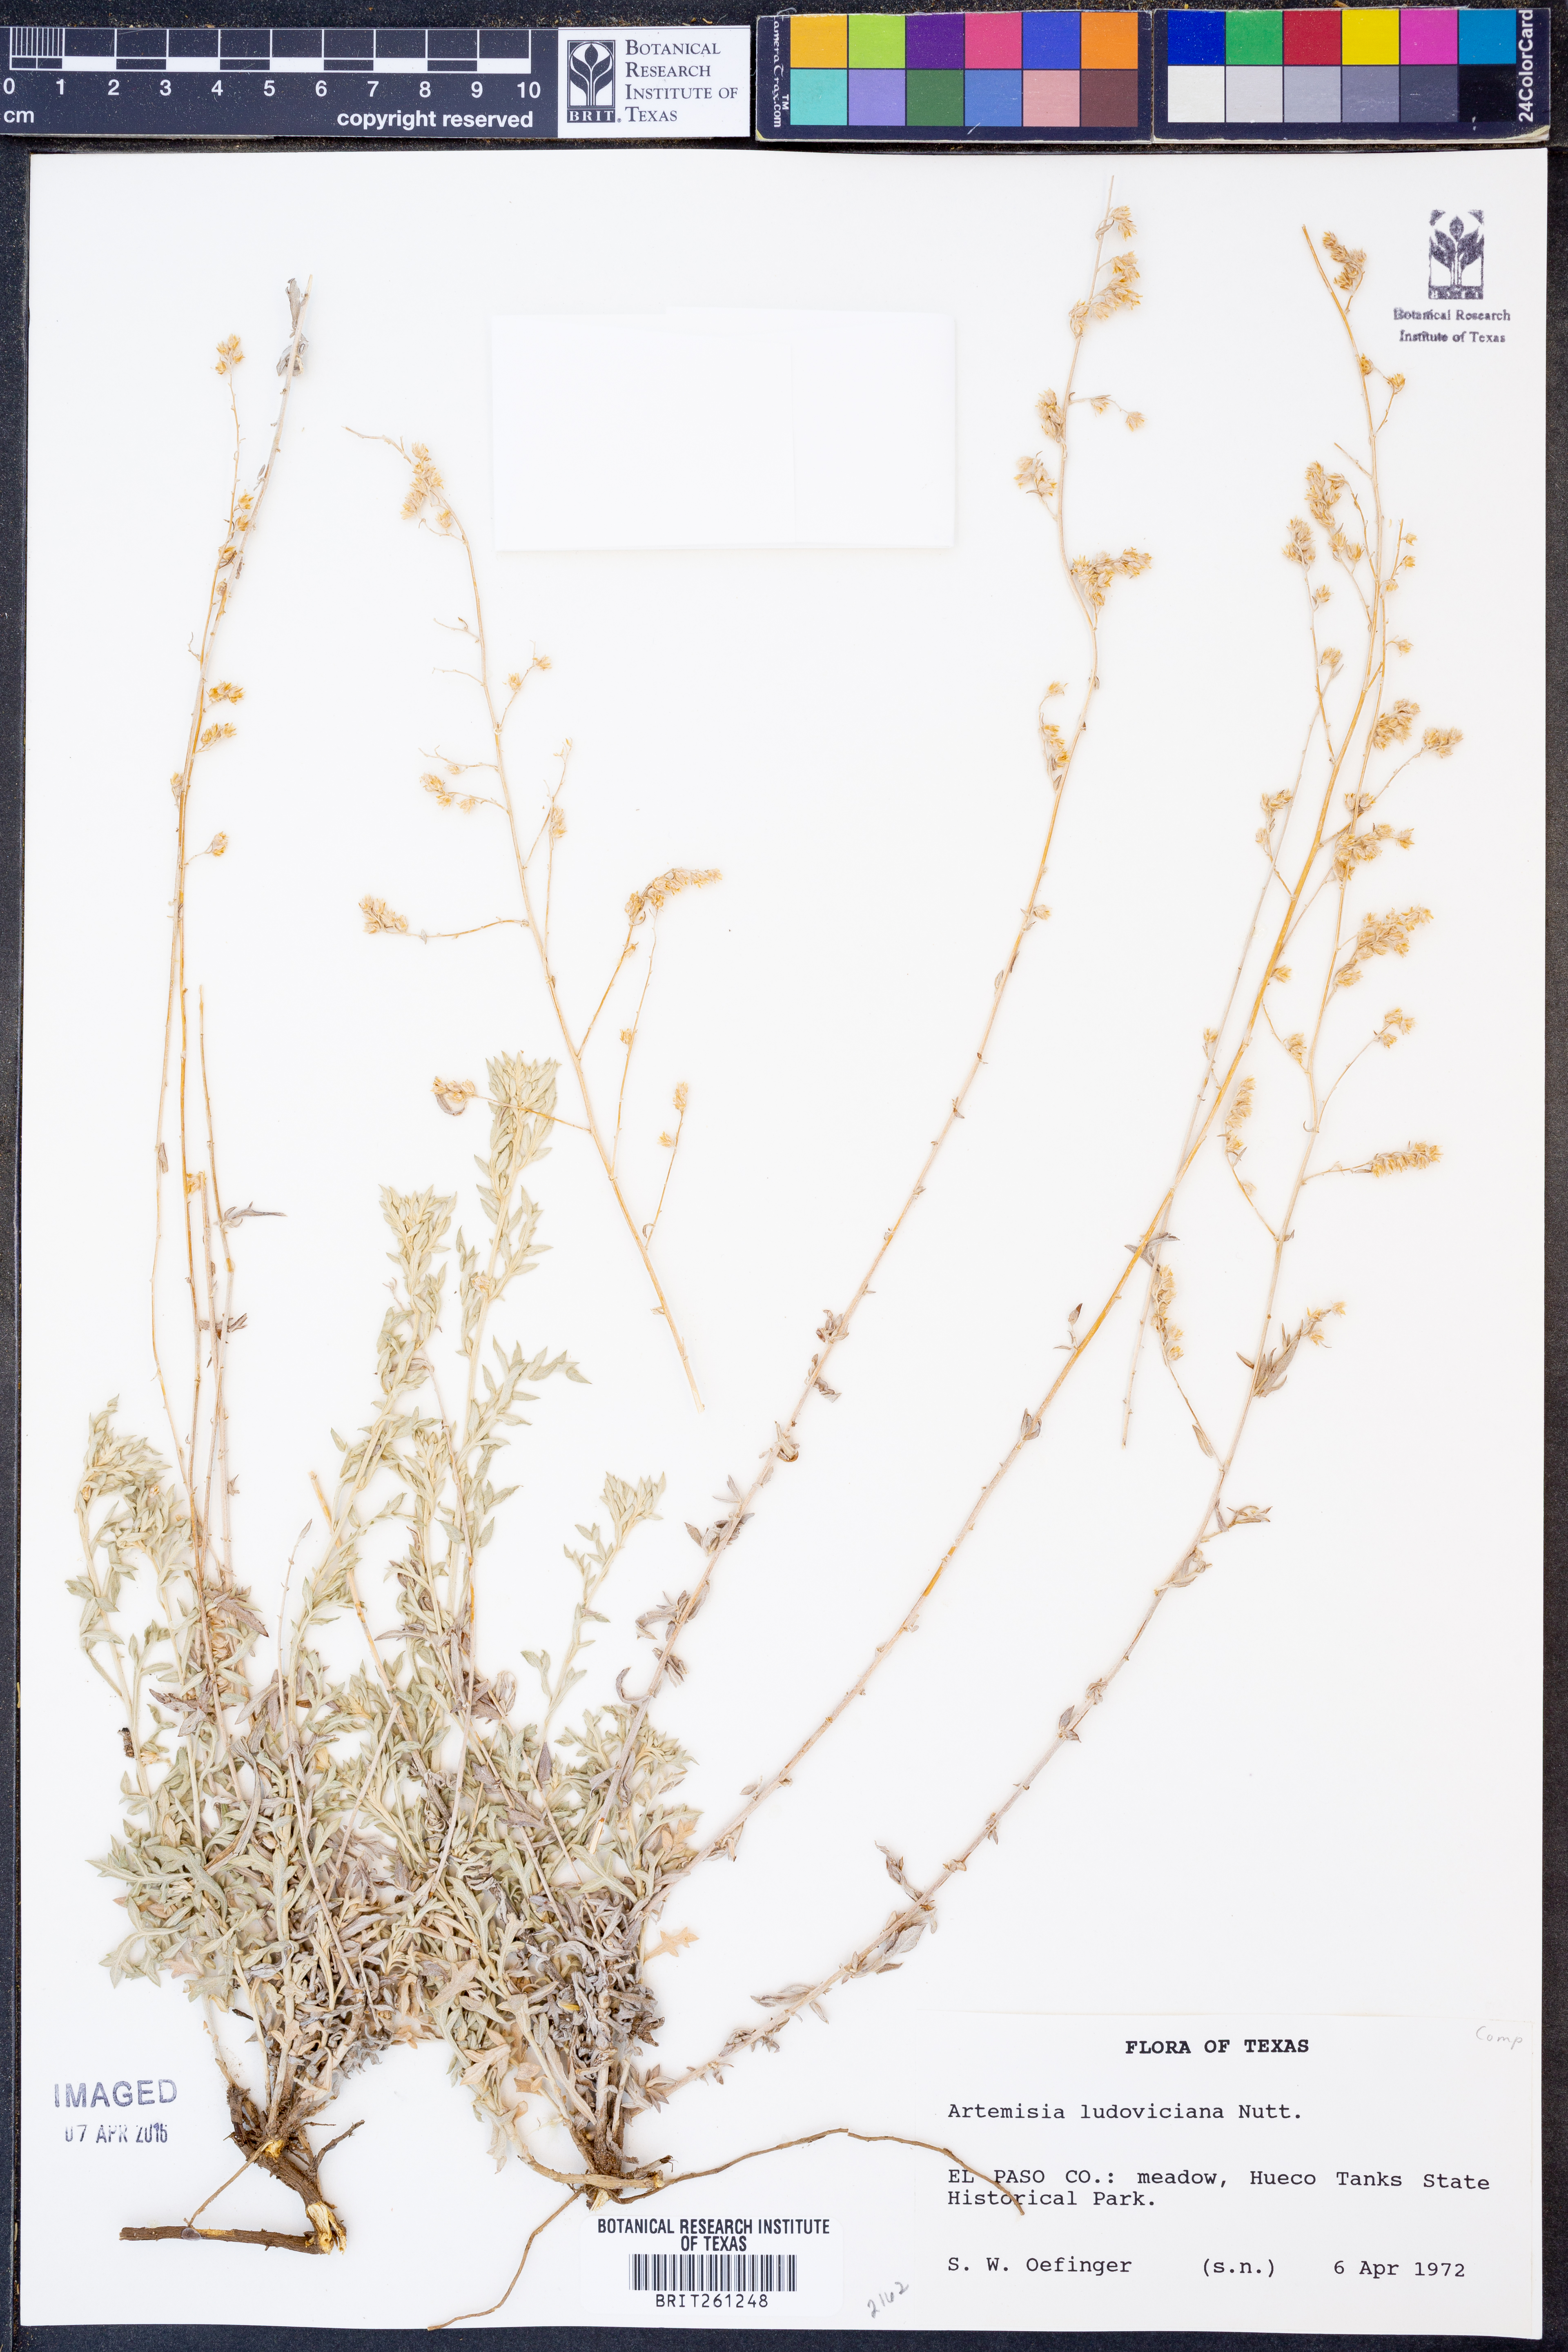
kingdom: Plantae
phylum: Tracheophyta
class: Magnoliopsida
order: Asterales
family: Asteraceae
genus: Artemisia
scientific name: Artemisia ludoviciana
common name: Western mugwort
